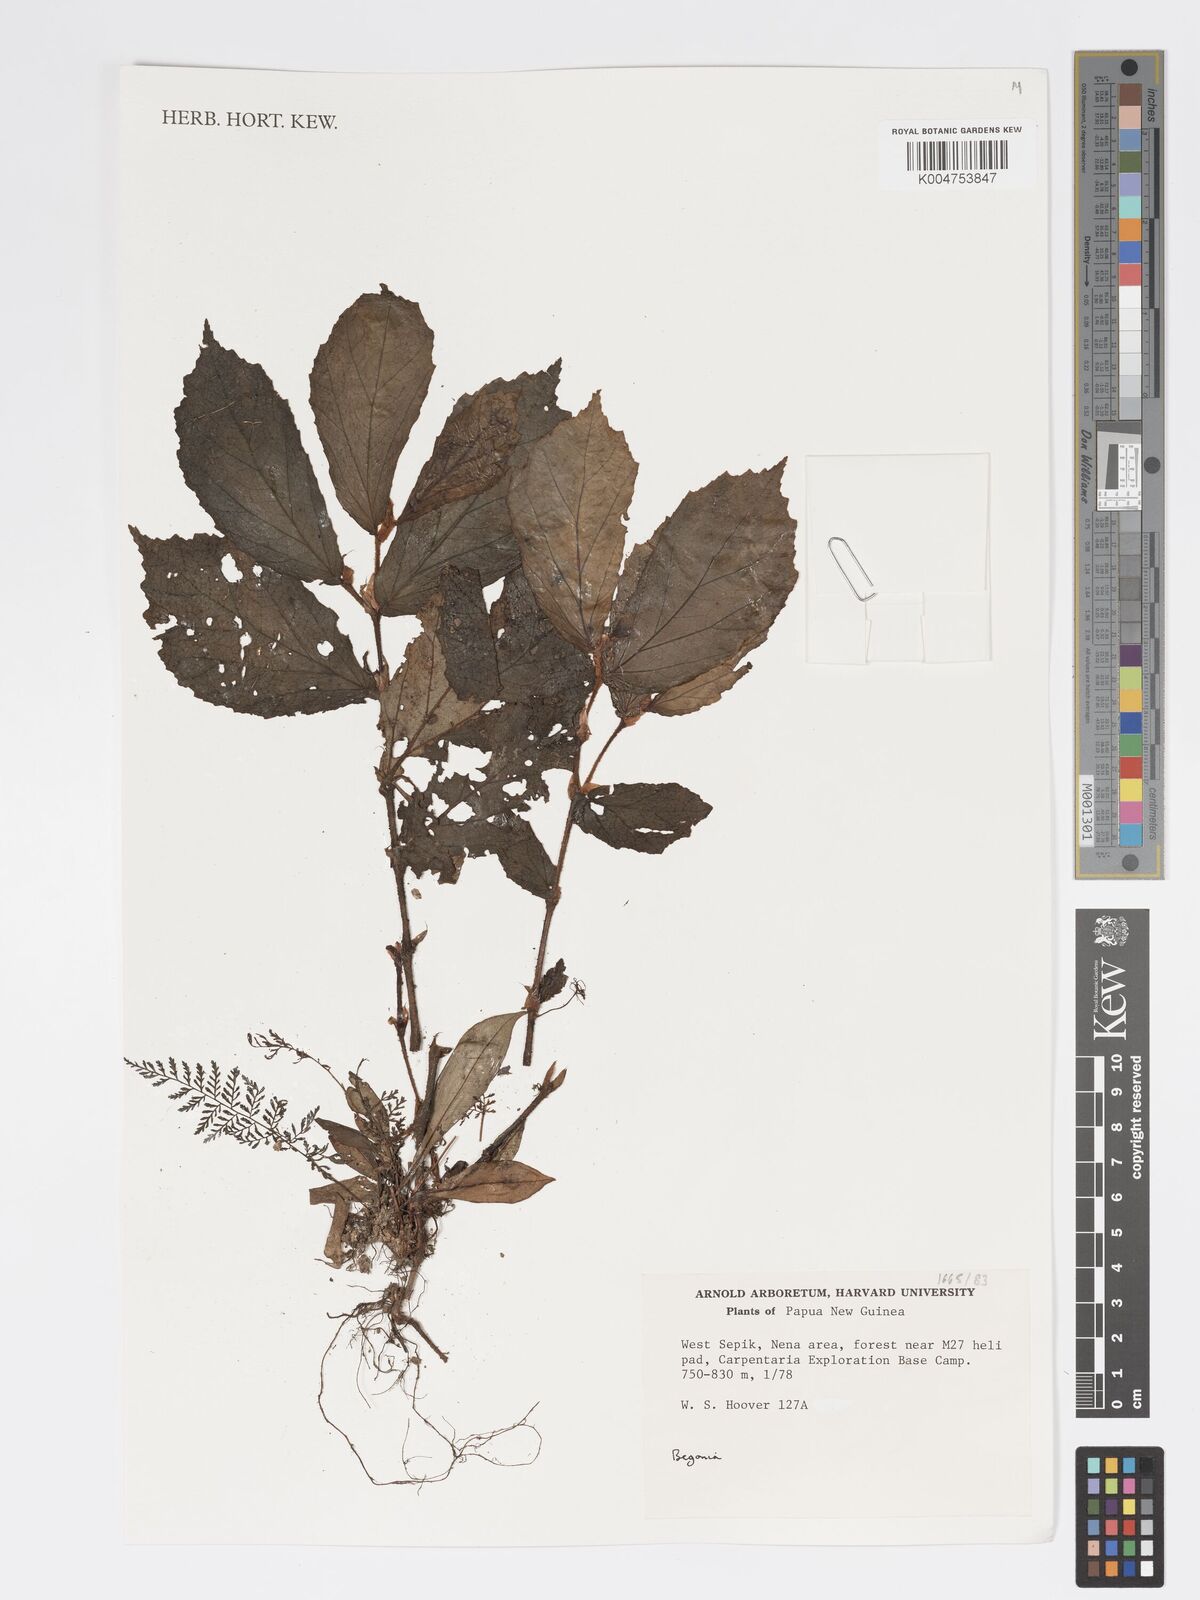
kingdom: Plantae
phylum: Tracheophyta
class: Magnoliopsida
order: Cucurbitales
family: Begoniaceae
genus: Begonia
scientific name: Begonia
